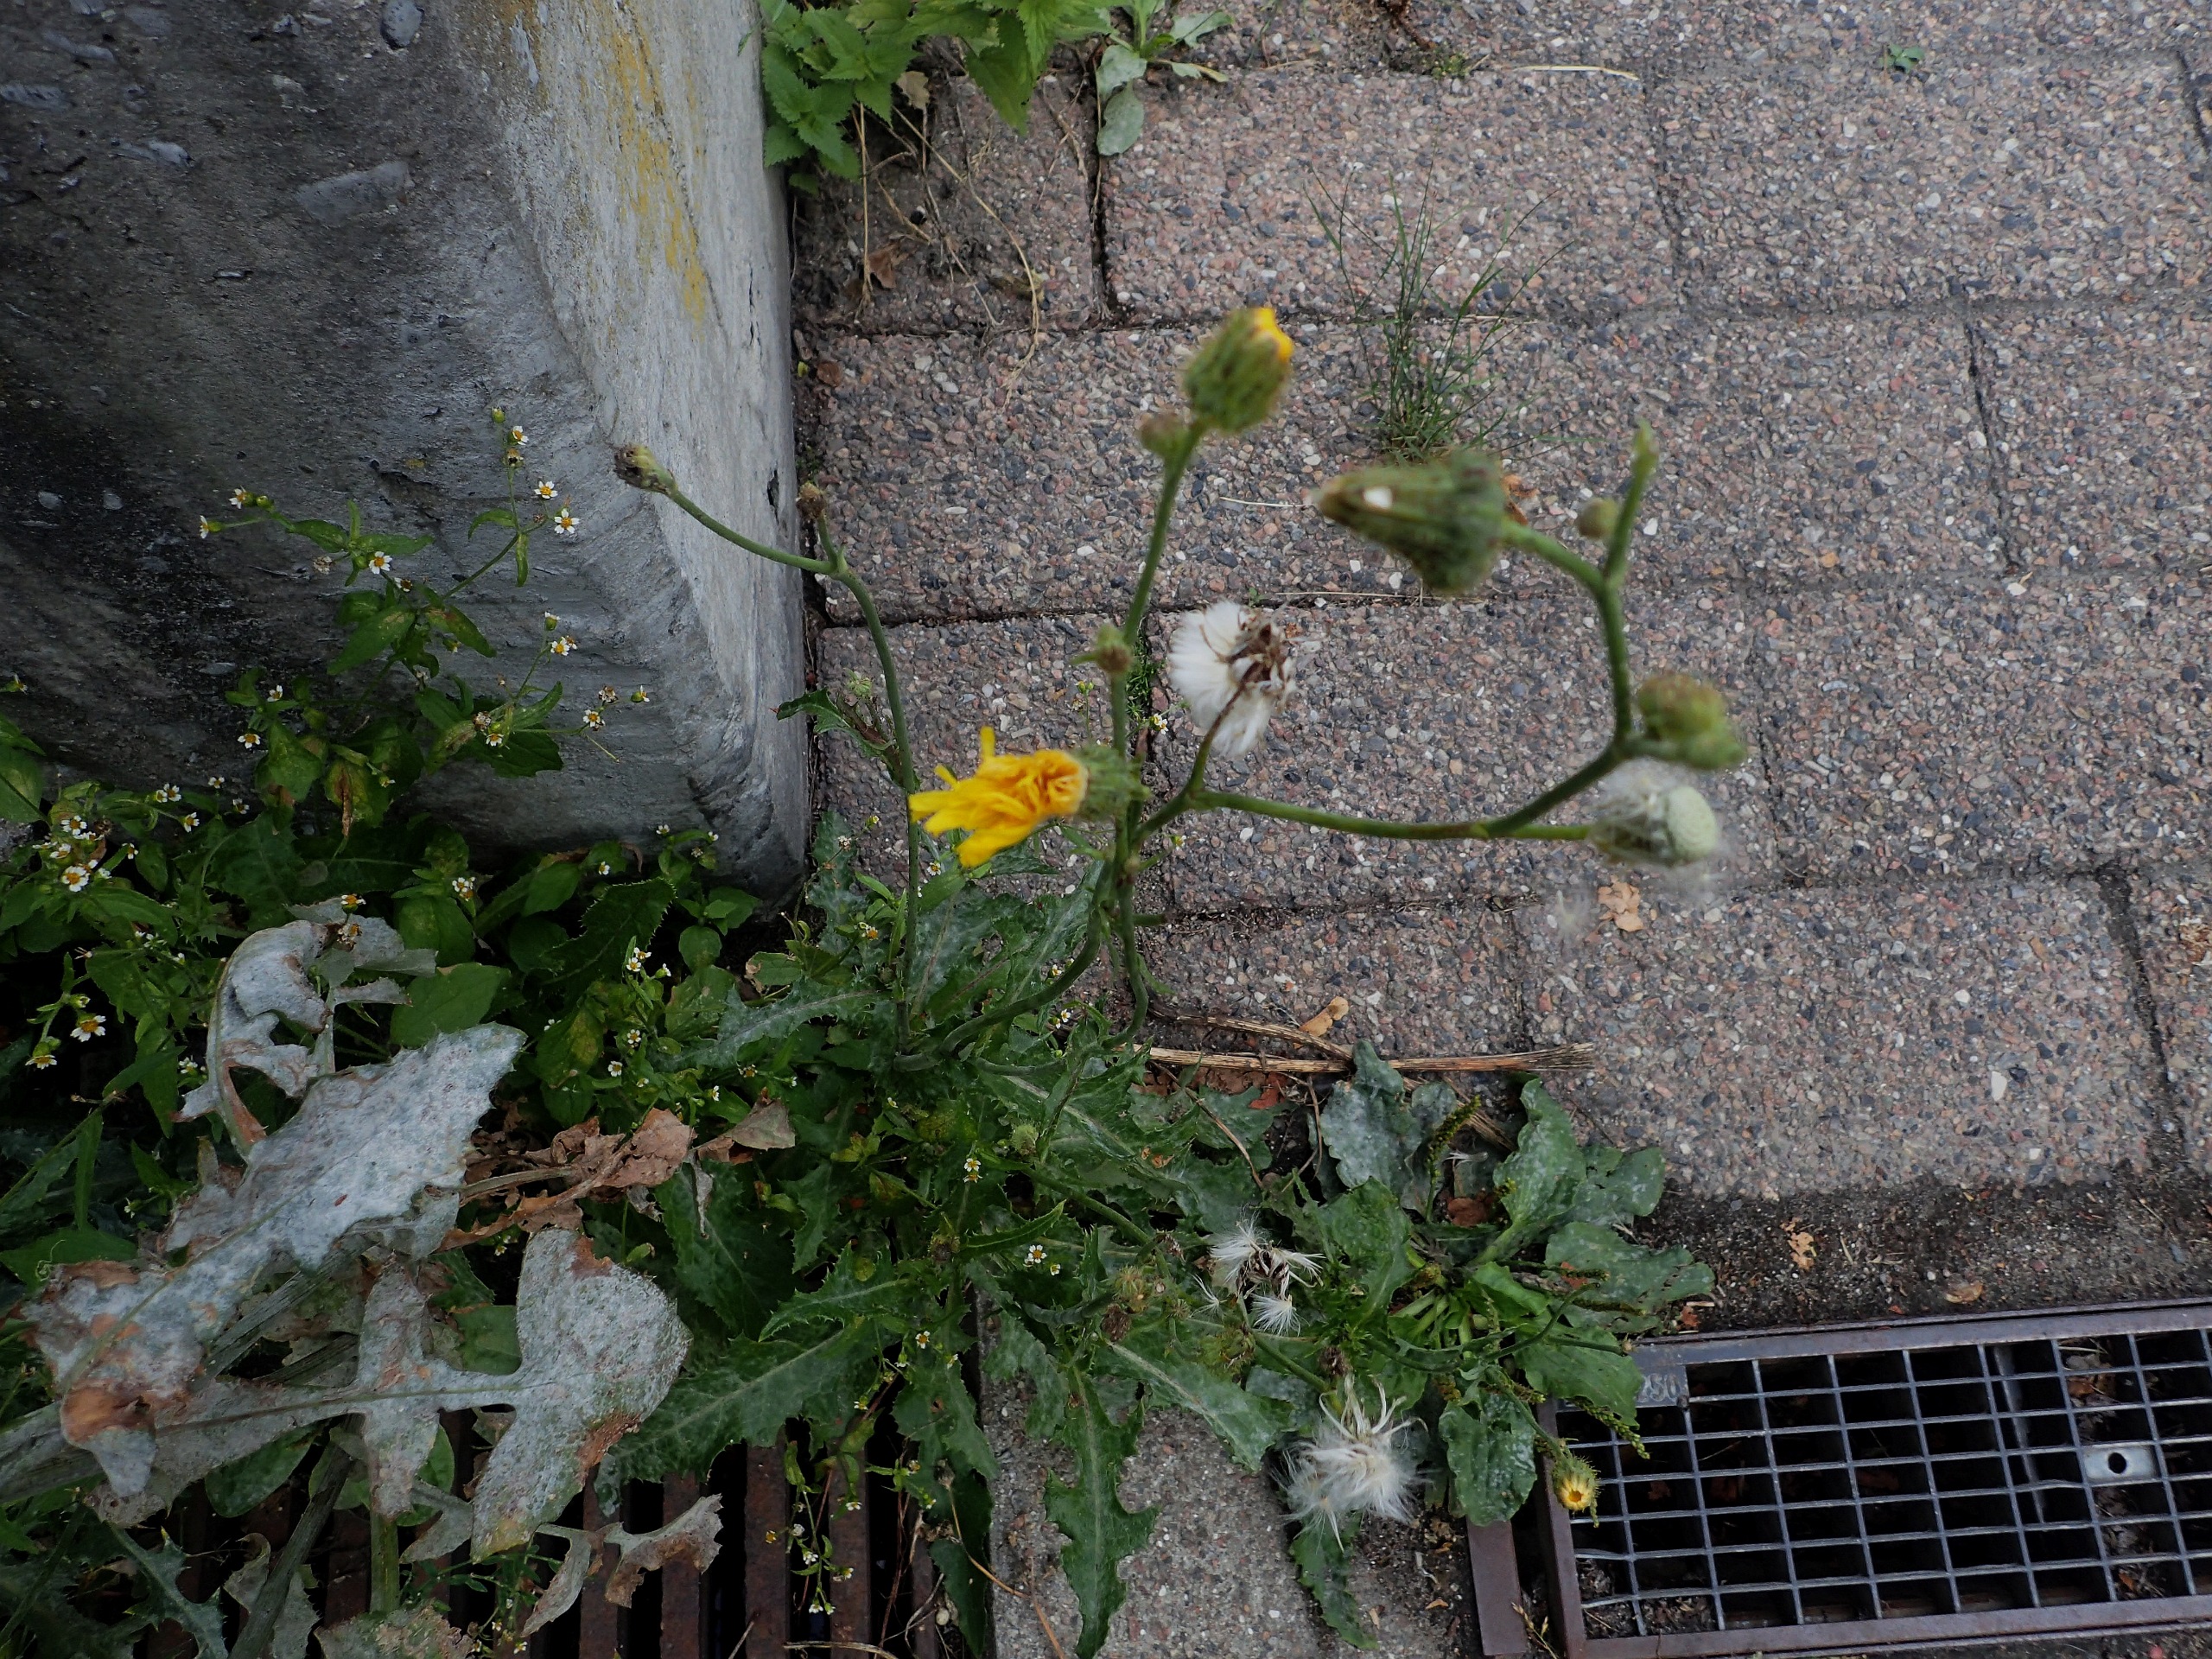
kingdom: Plantae
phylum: Tracheophyta
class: Magnoliopsida
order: Asterales
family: Asteraceae
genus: Sonchus
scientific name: Sonchus arvensis
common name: Ager-svinemælk
